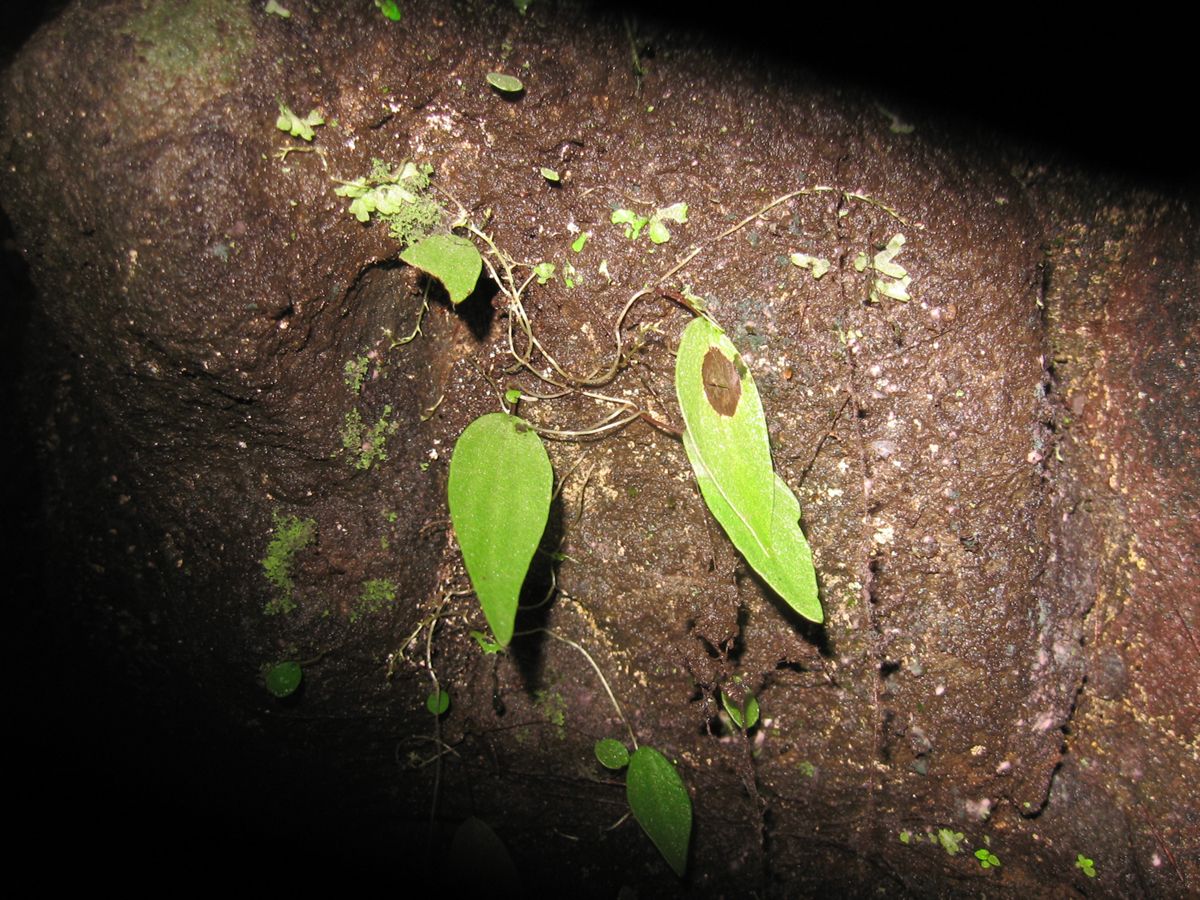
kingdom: Plantae
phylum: Tracheophyta
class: Magnoliopsida
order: Piperales
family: Piperaceae
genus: Peperomia
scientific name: Peperomia mexicana
